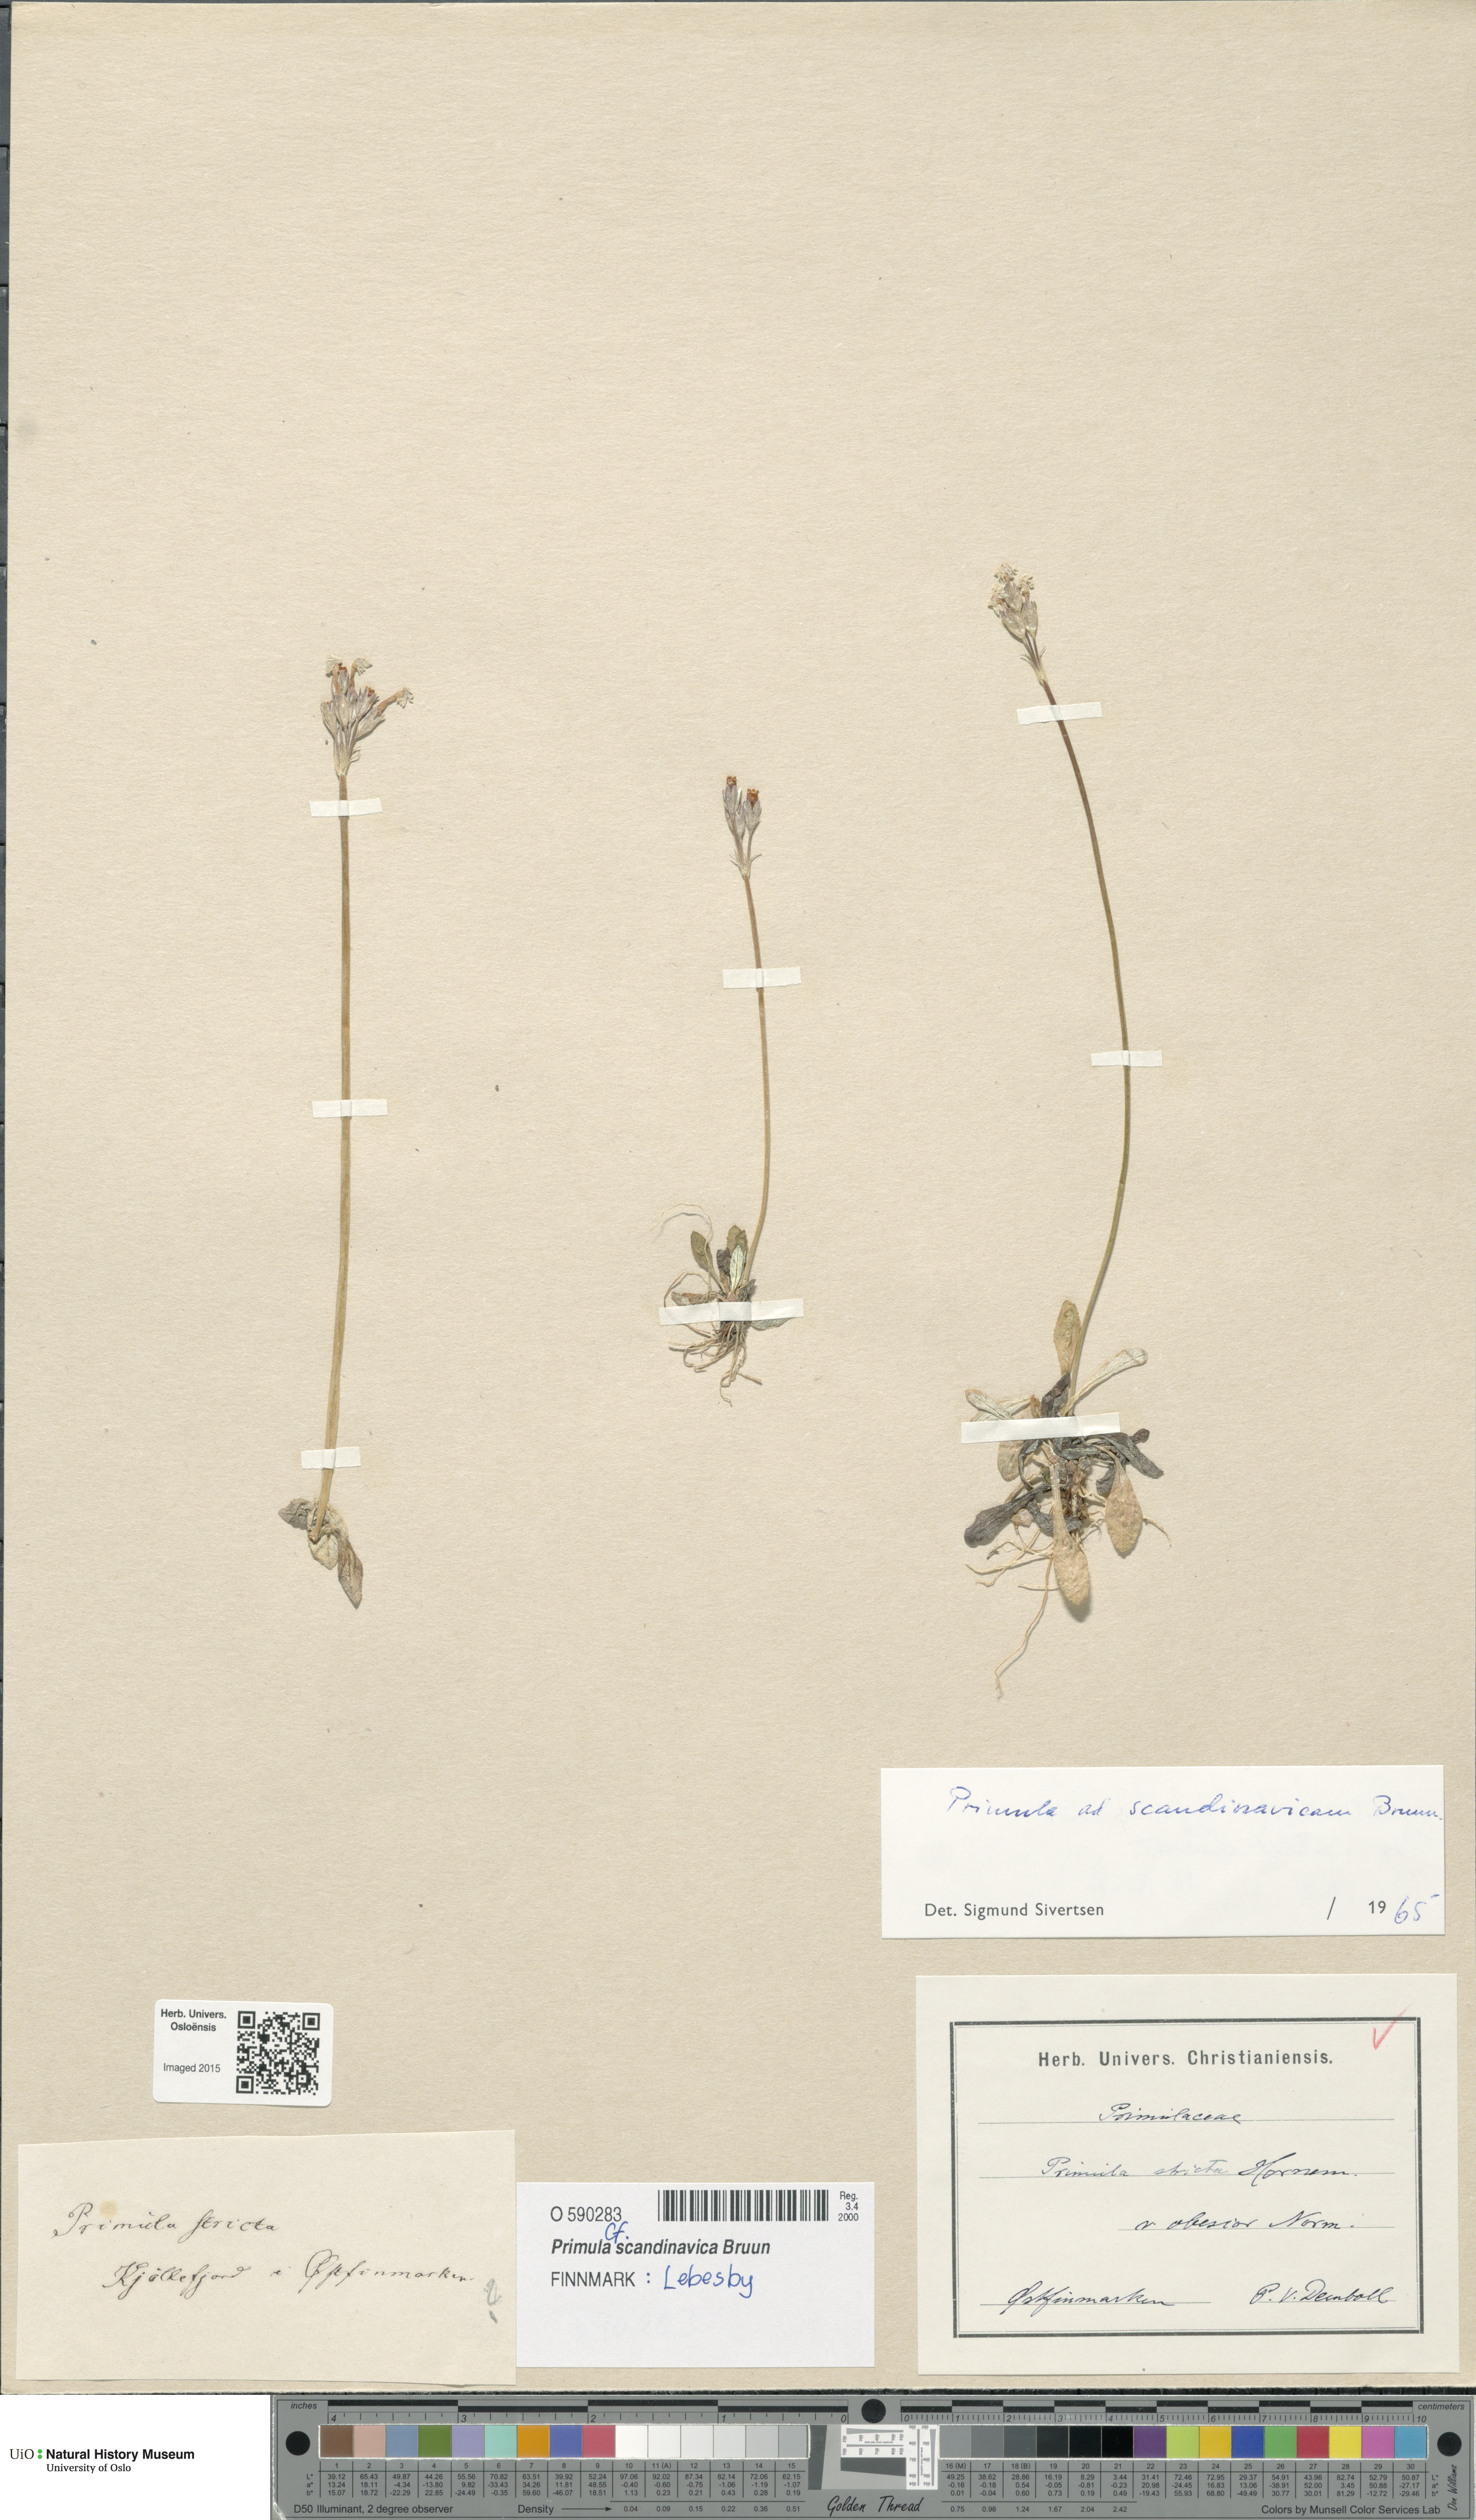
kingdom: Plantae
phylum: Tracheophyta
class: Magnoliopsida
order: Ericales
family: Primulaceae
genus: Primula
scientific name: Primula scandinavica
